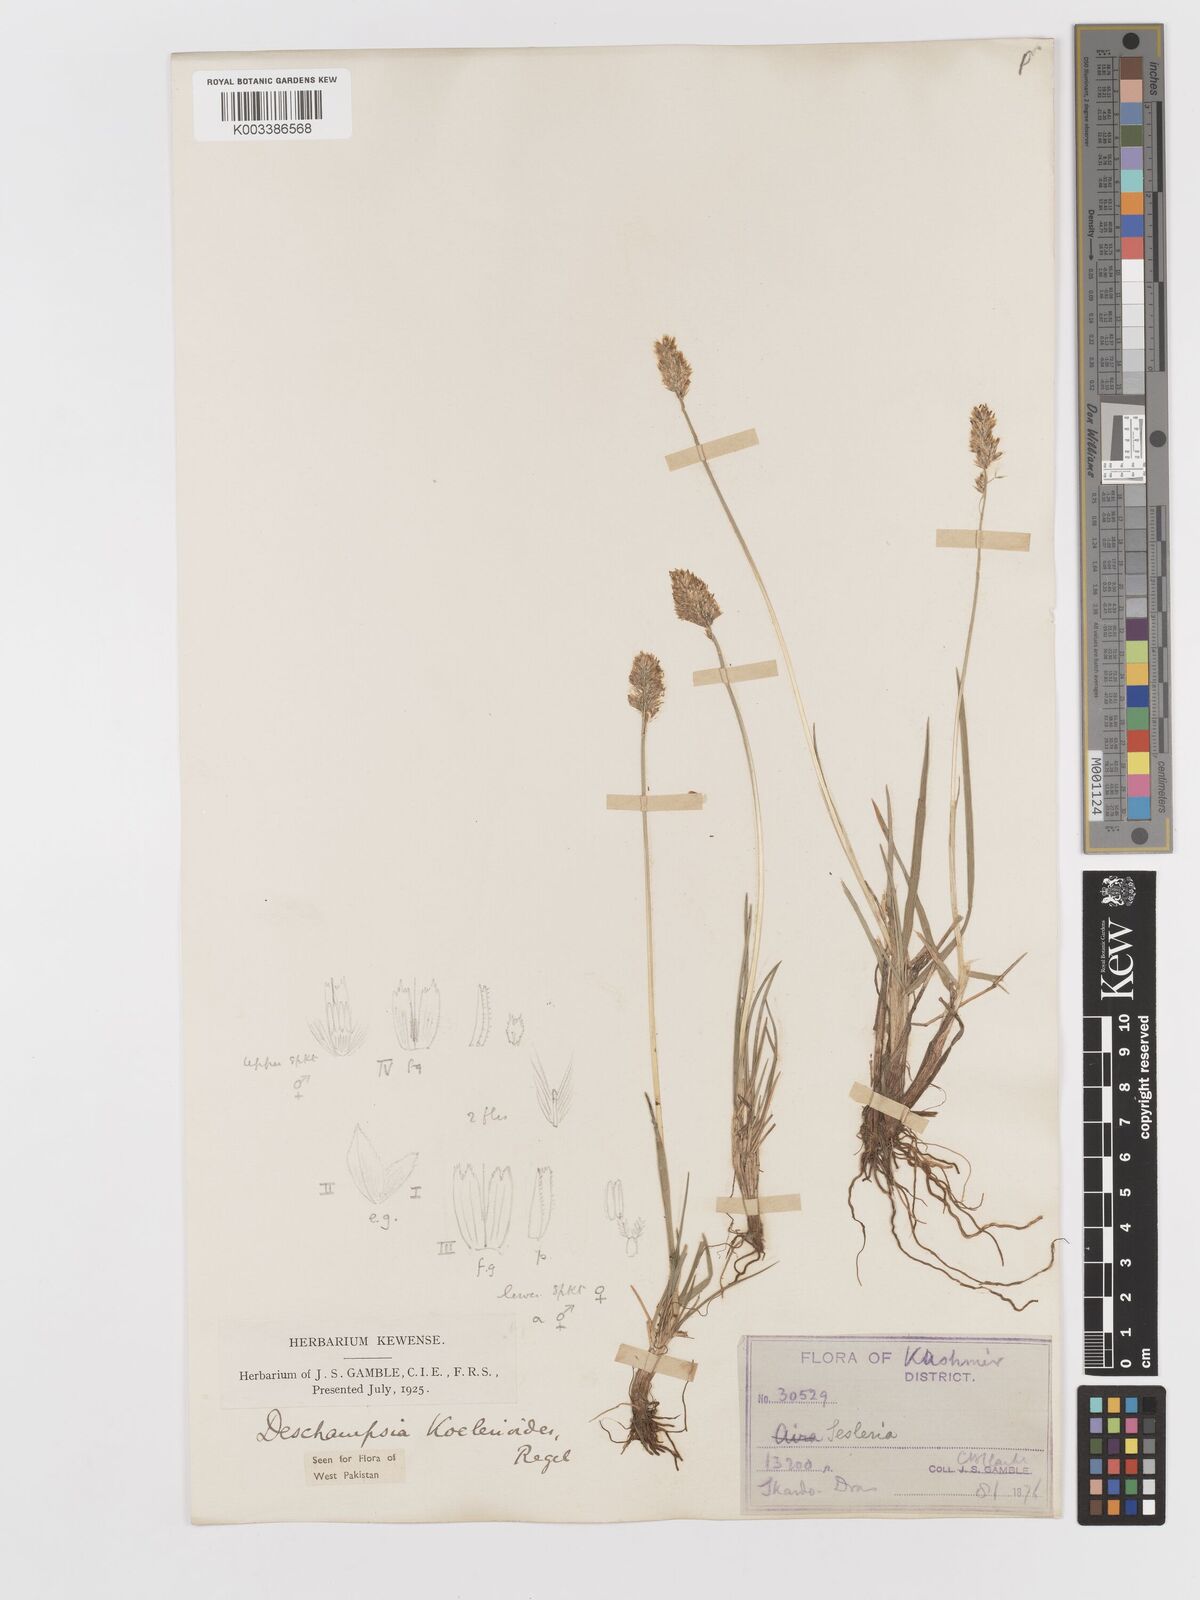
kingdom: Plantae
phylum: Tracheophyta
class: Liliopsida
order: Poales
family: Poaceae
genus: Deschampsia
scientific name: Deschampsia koelerioides
